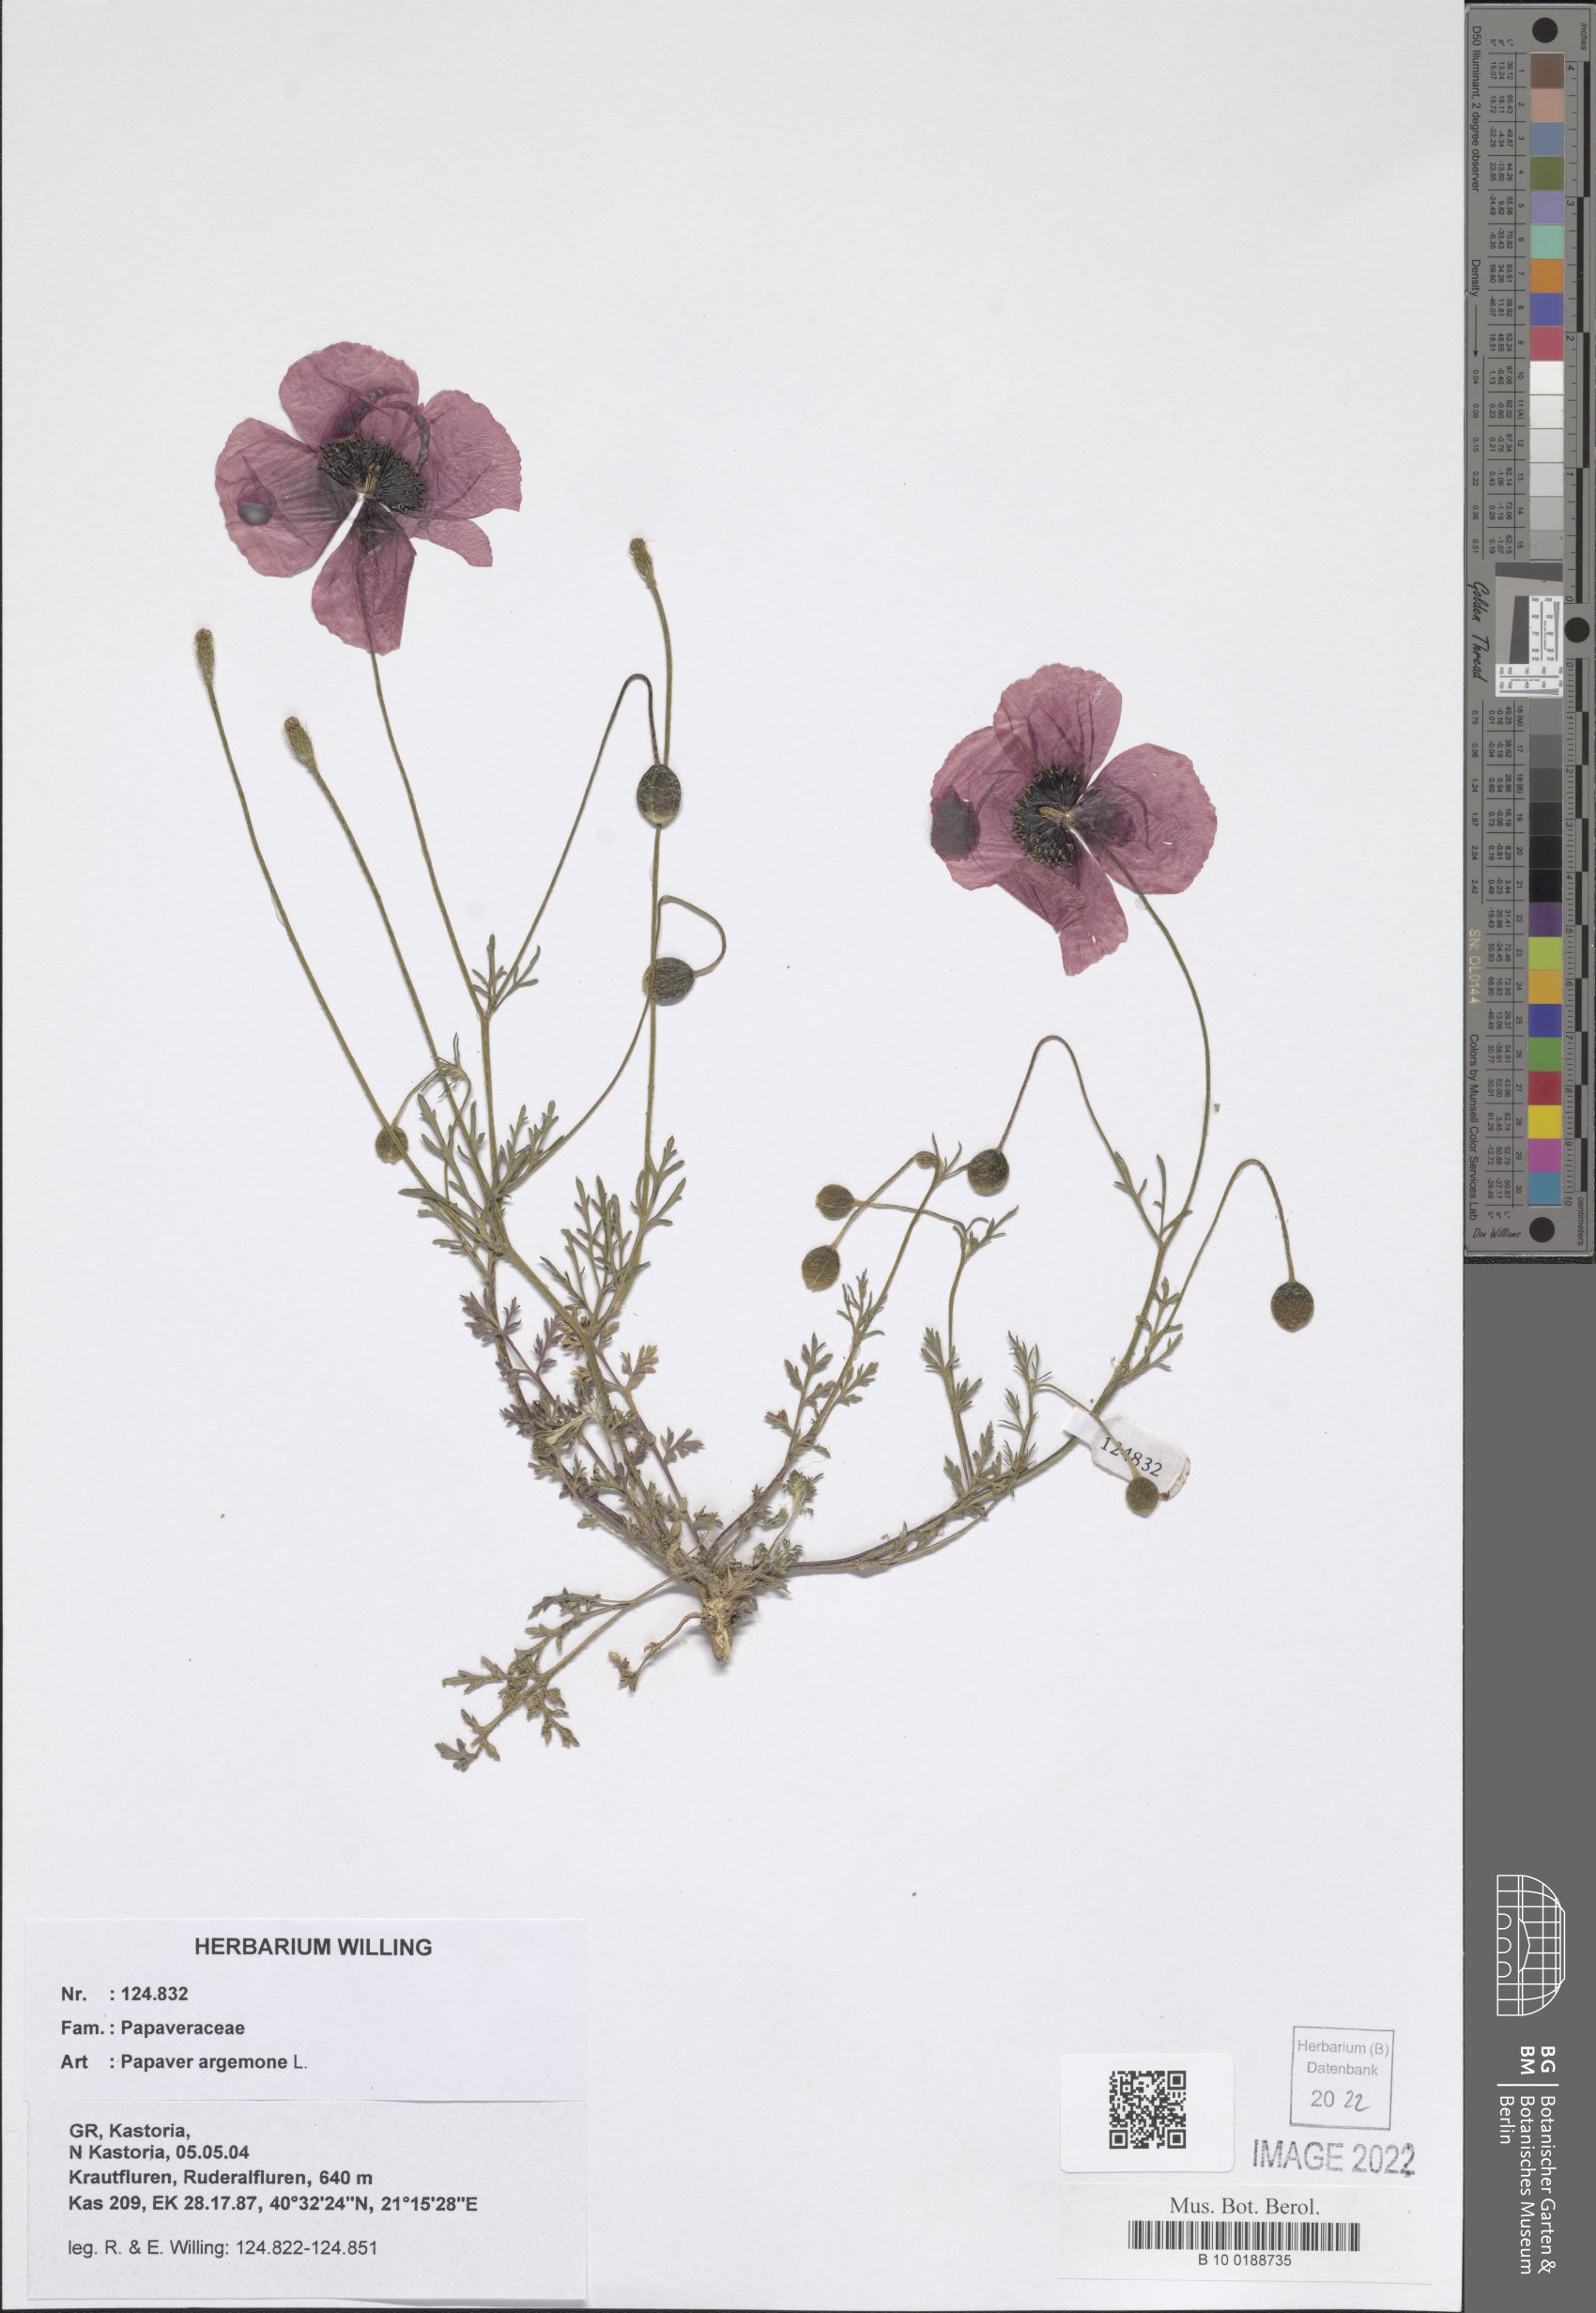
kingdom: Plantae
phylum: Tracheophyta
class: Magnoliopsida
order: Ranunculales
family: Papaveraceae
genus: Roemeria
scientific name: Roemeria argemone
